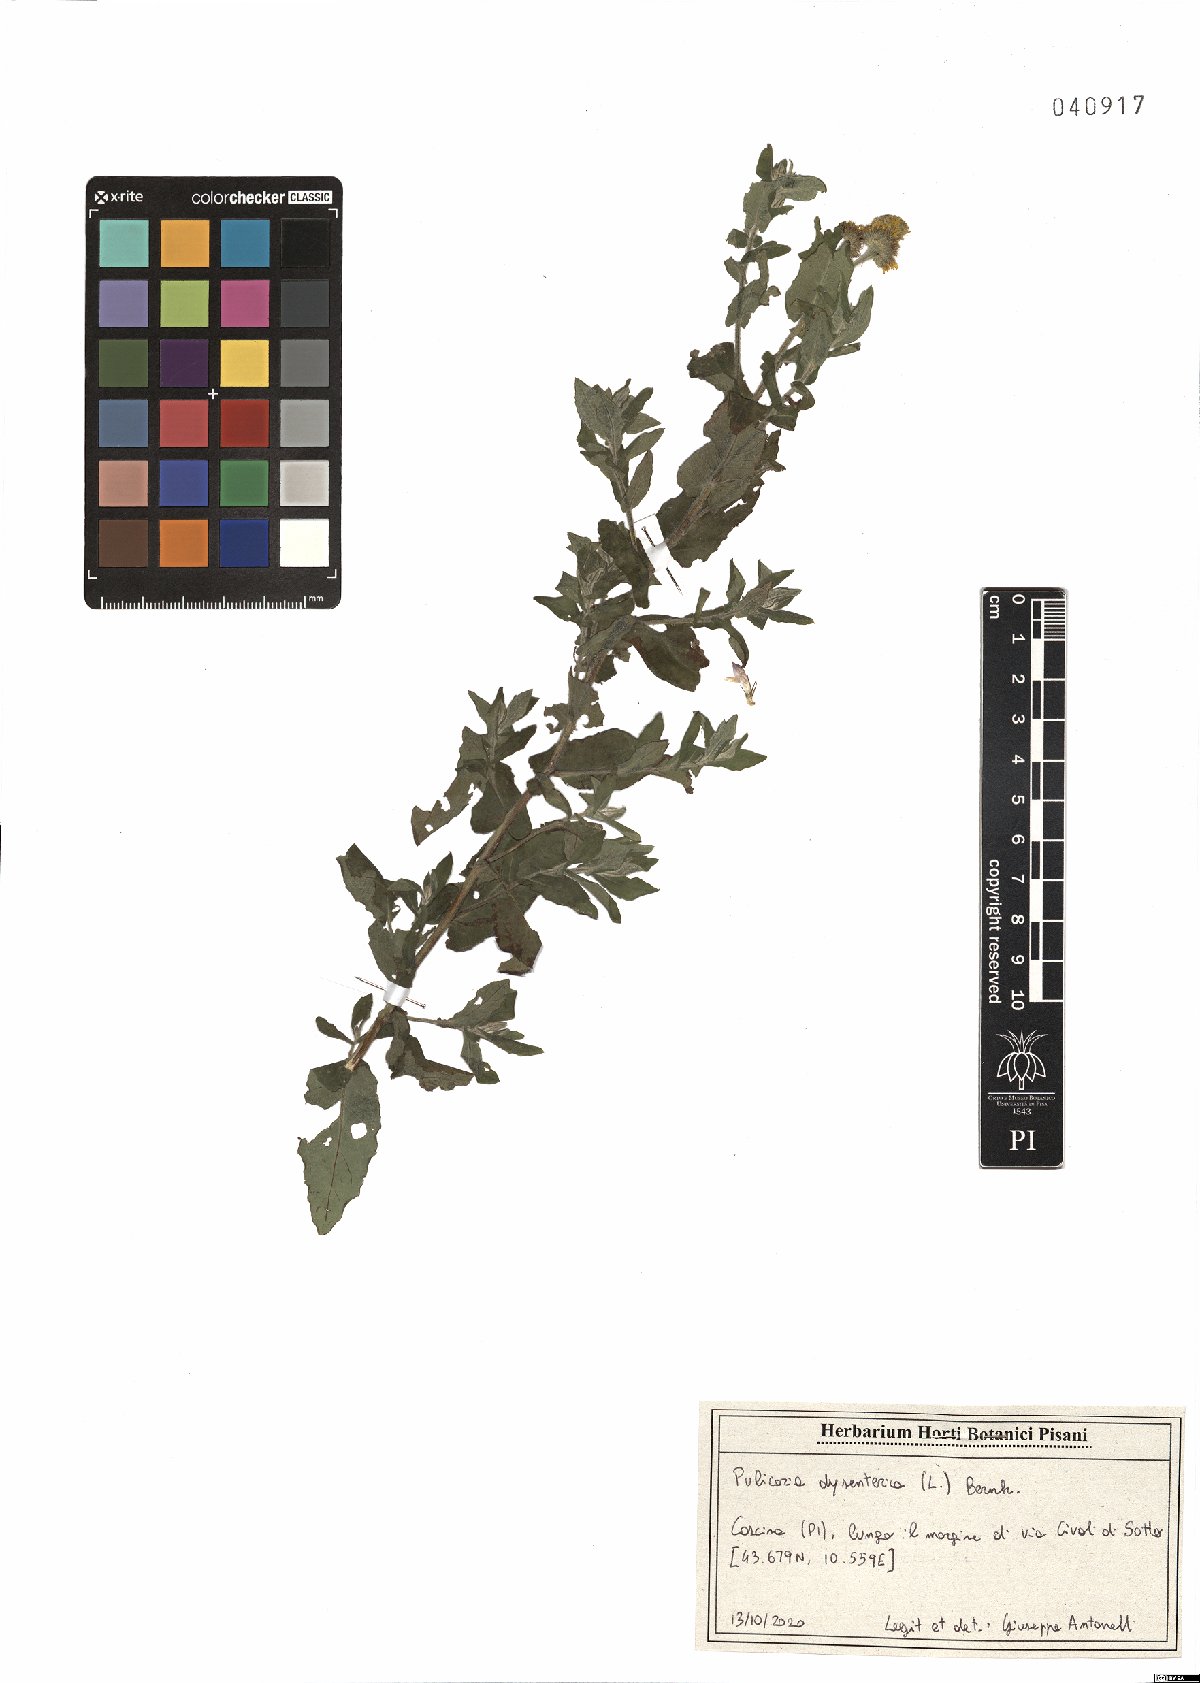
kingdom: Plantae
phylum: Tracheophyta
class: Magnoliopsida
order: Asterales
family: Asteraceae
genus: Pulicaria
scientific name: Pulicaria dysenterica
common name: Common fleabane
